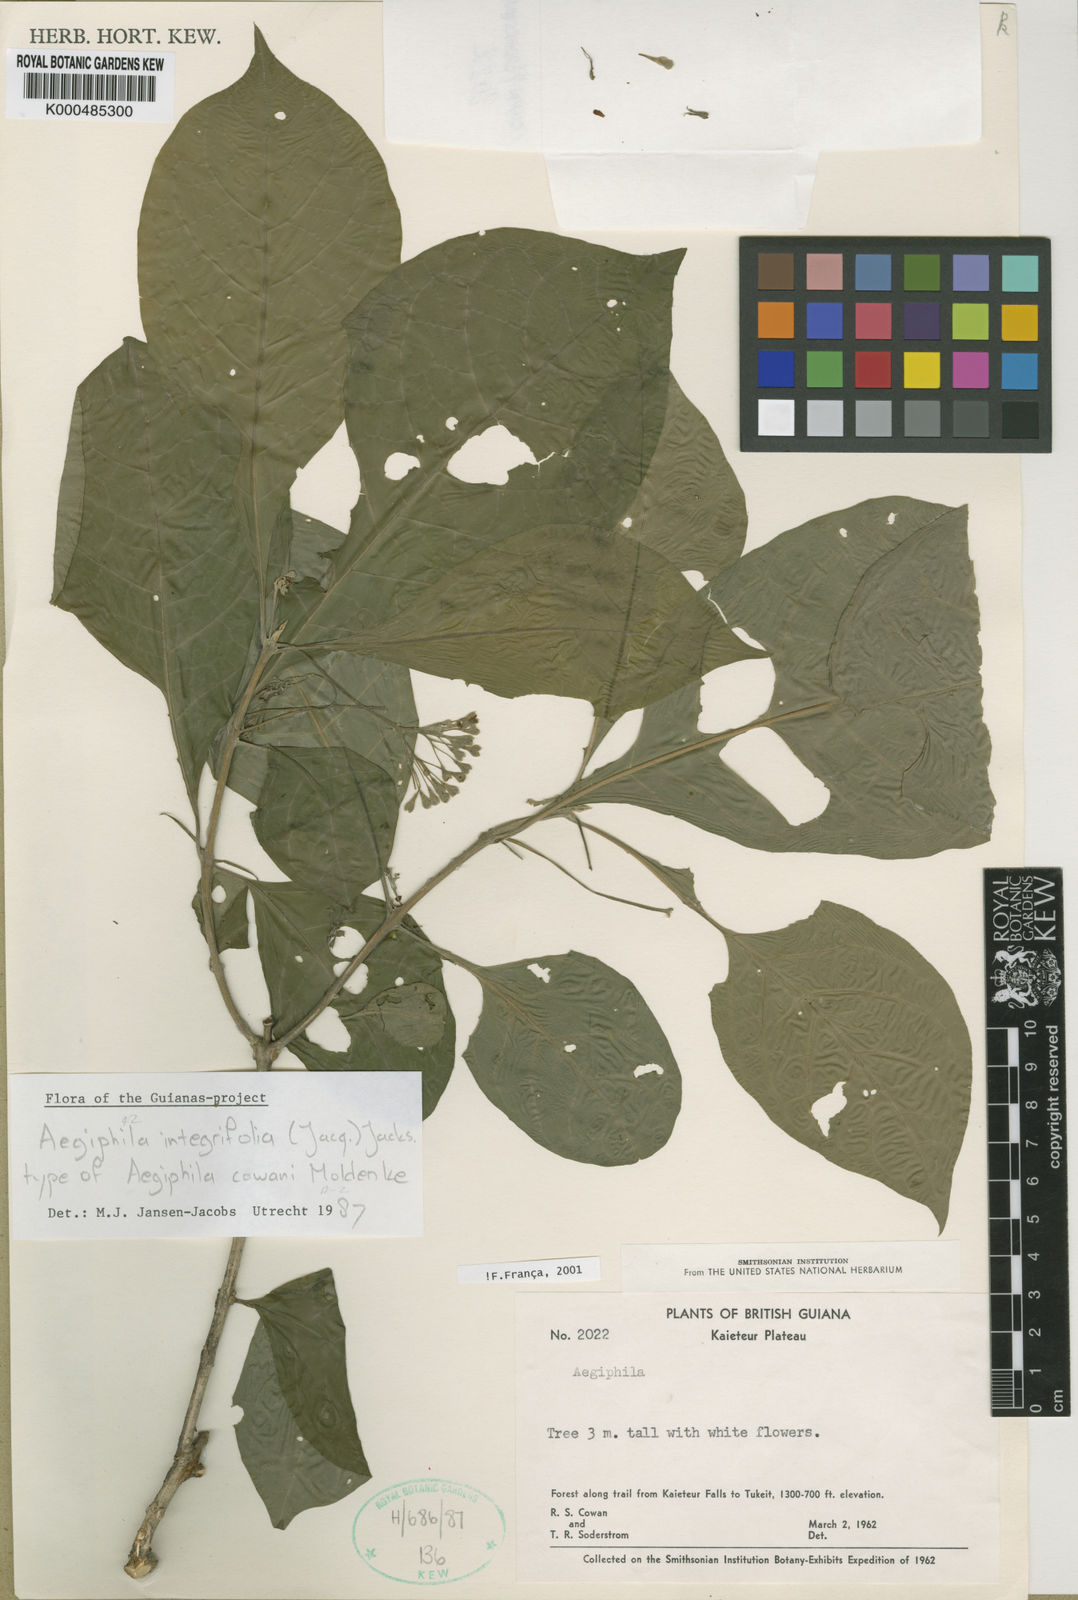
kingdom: Plantae
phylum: Tracheophyta
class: Magnoliopsida
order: Lamiales
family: Lamiaceae
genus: Aegiphila
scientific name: Aegiphila integrifolia
